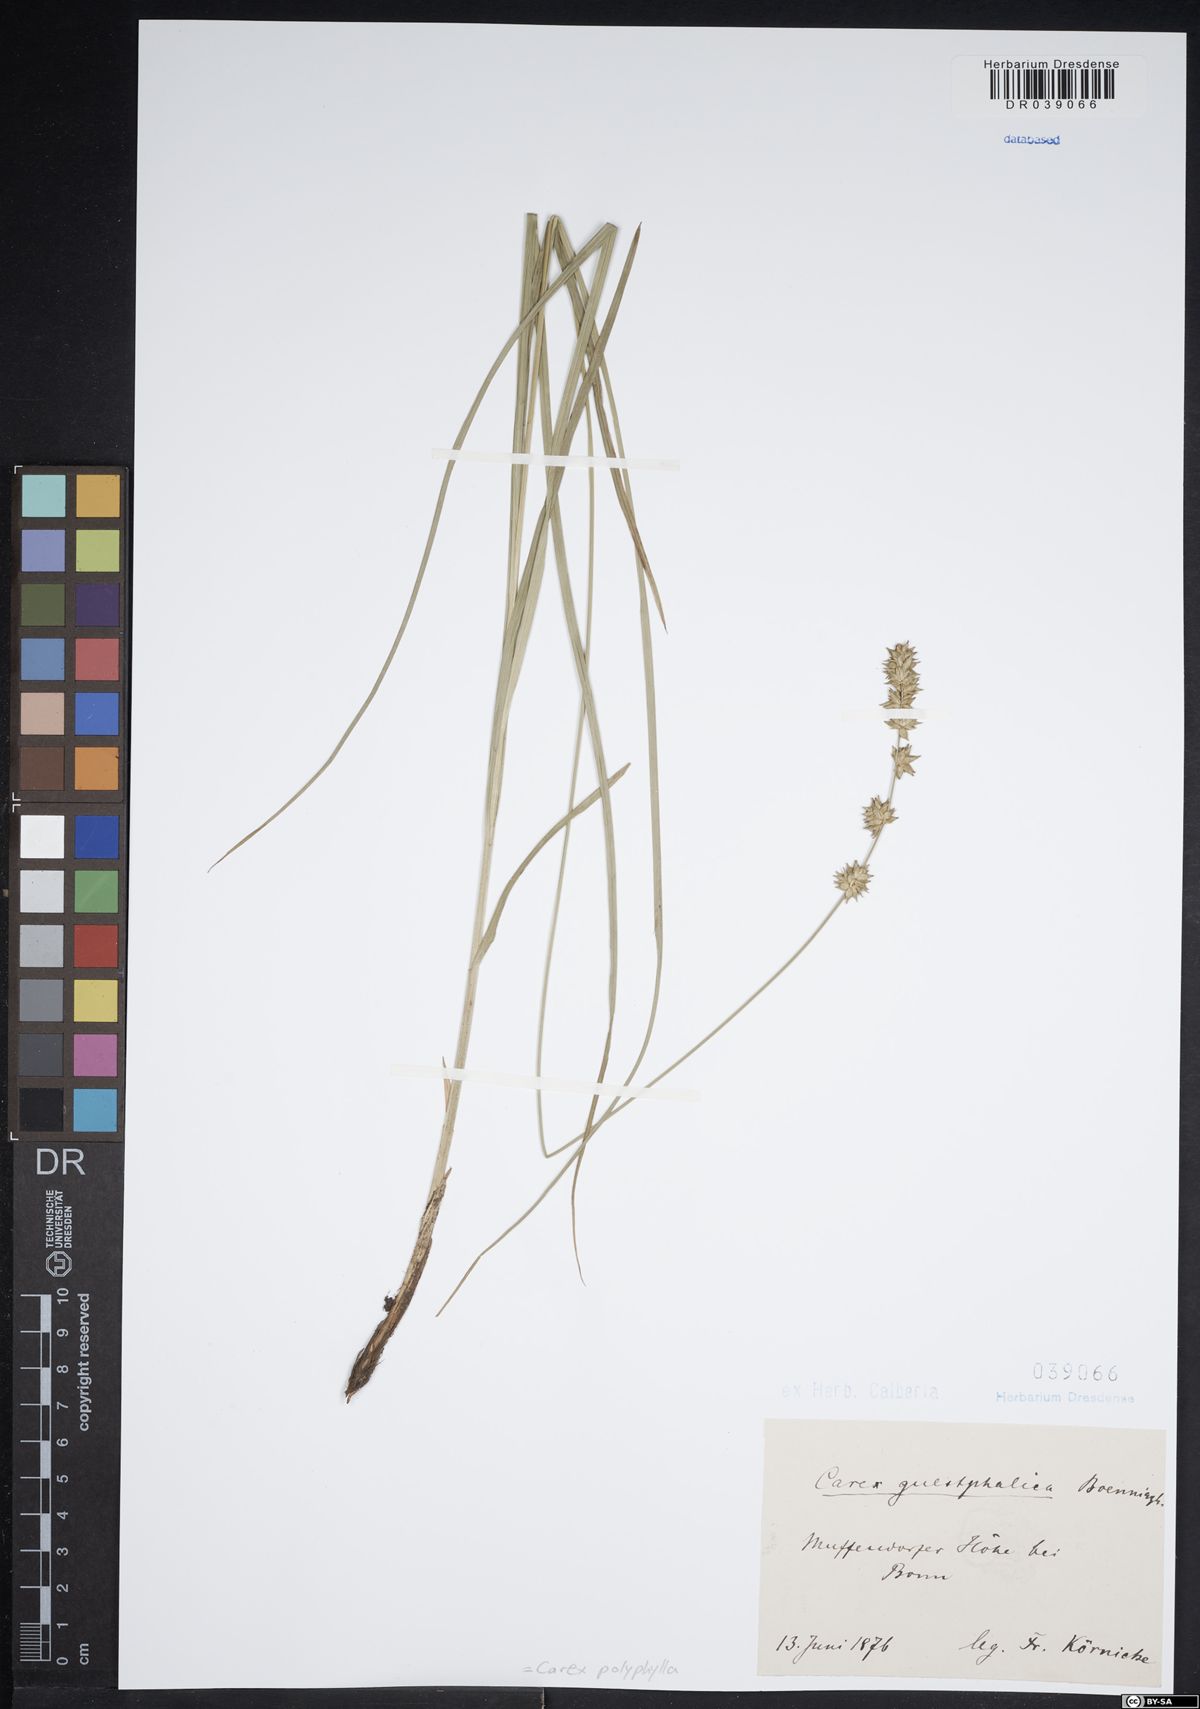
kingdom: Plantae
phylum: Tracheophyta
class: Liliopsida
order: Poales
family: Cyperaceae
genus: Carex
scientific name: Carex divulsa
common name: Grassland sedge
